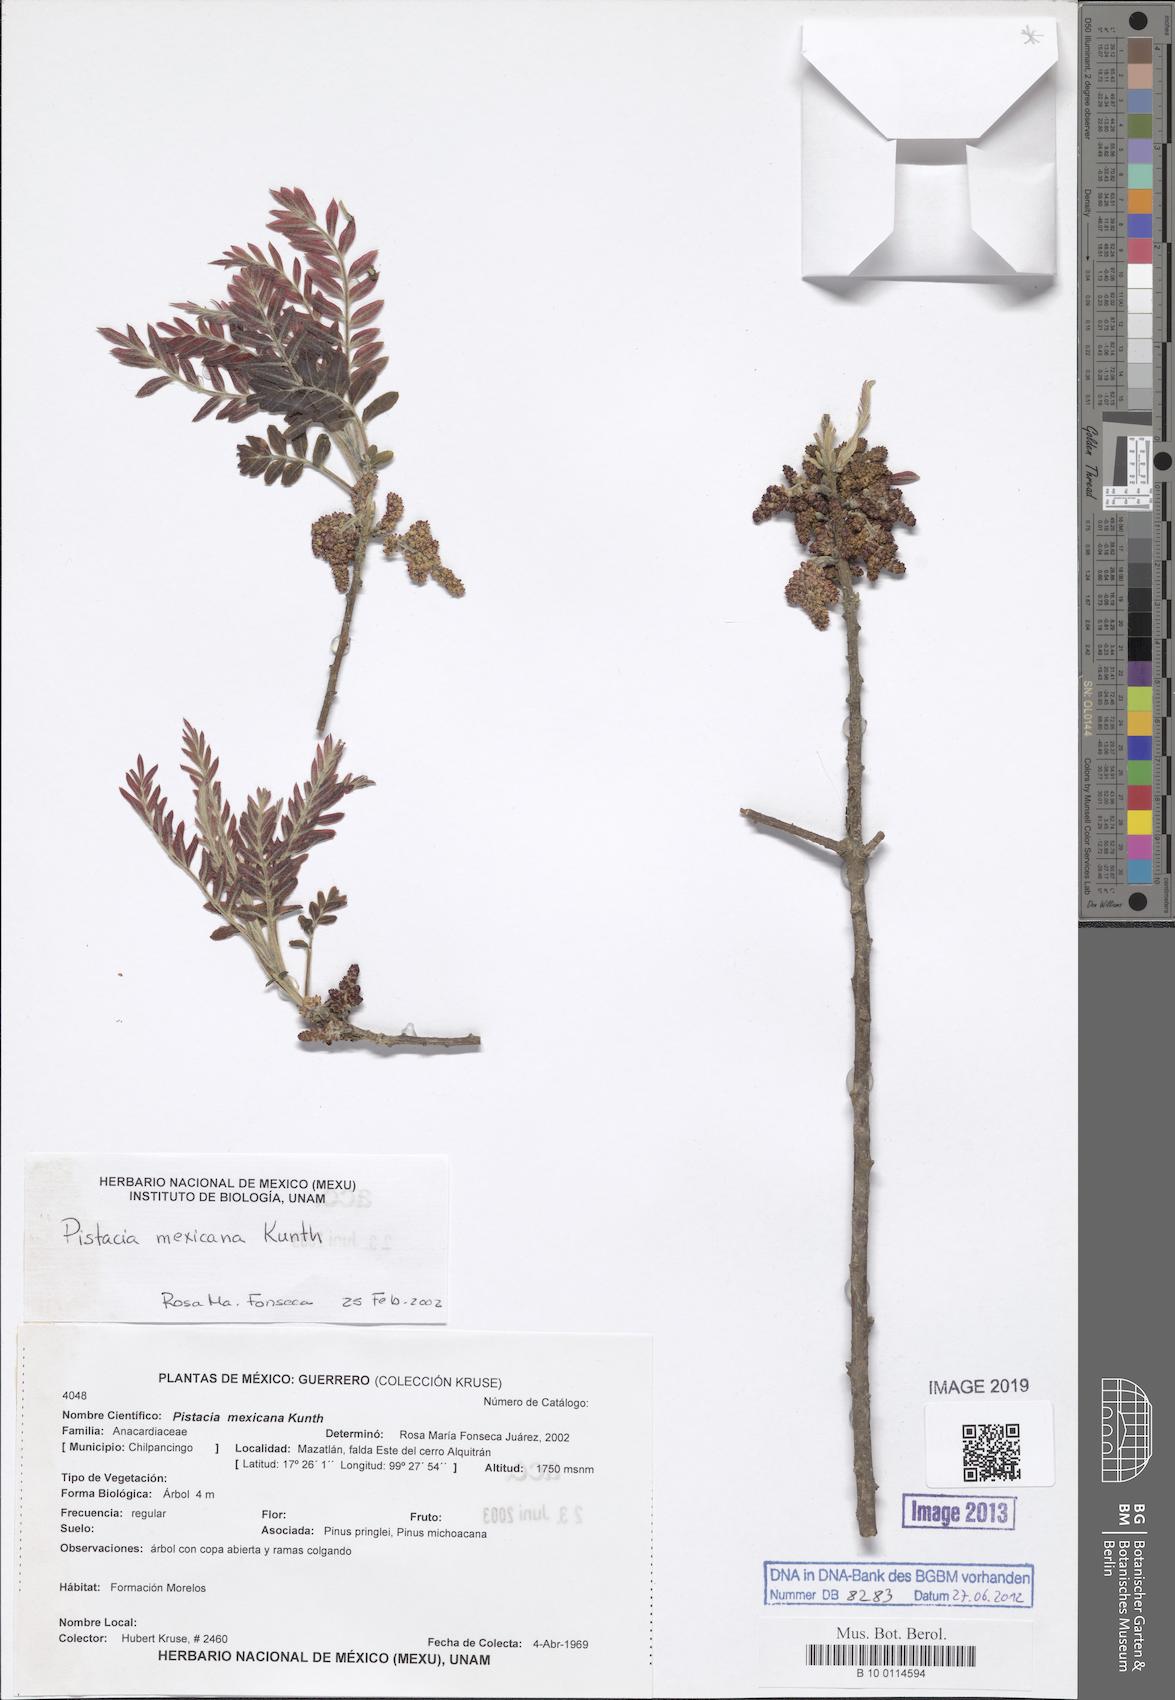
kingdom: Plantae
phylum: Tracheophyta
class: Magnoliopsida
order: Sapindales
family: Anacardiaceae
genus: Pistacia
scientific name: Pistacia mexicana
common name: Mexican pistachio
